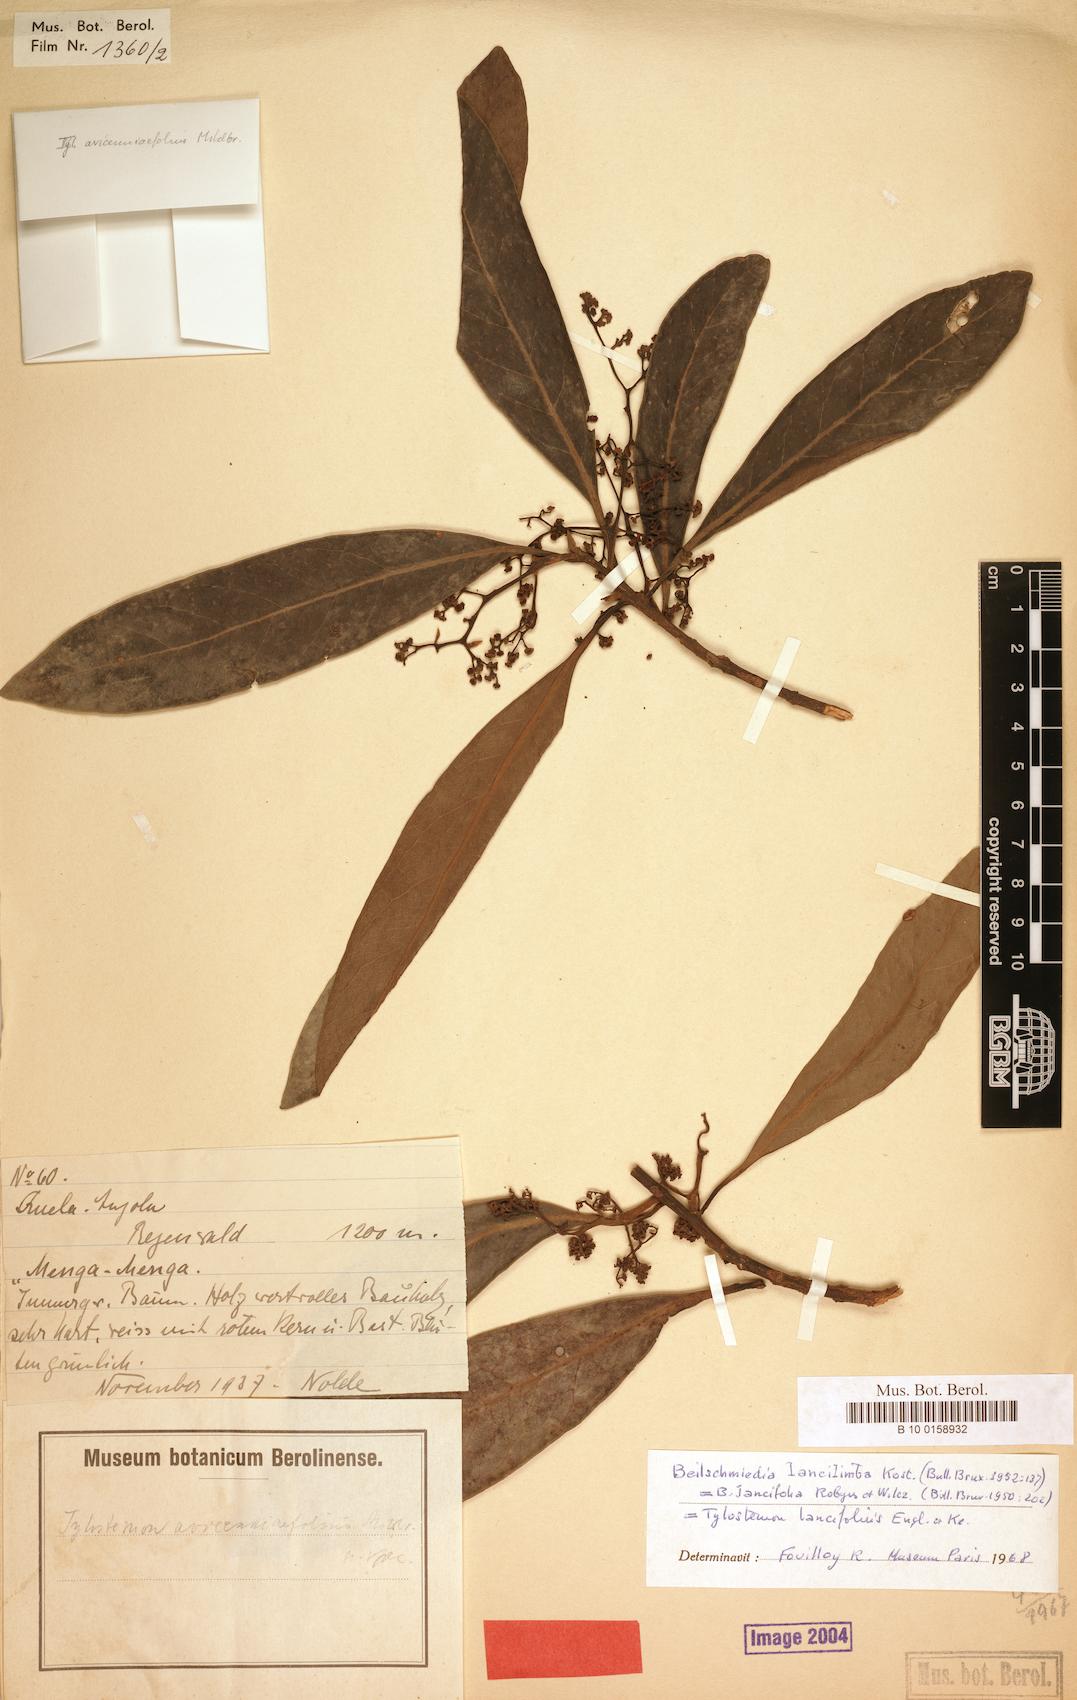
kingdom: Plantae
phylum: Tracheophyta
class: Magnoliopsida
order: Laurales
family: Lauraceae
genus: Beilschmiedia
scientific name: Beilschmiedia lancilimba
